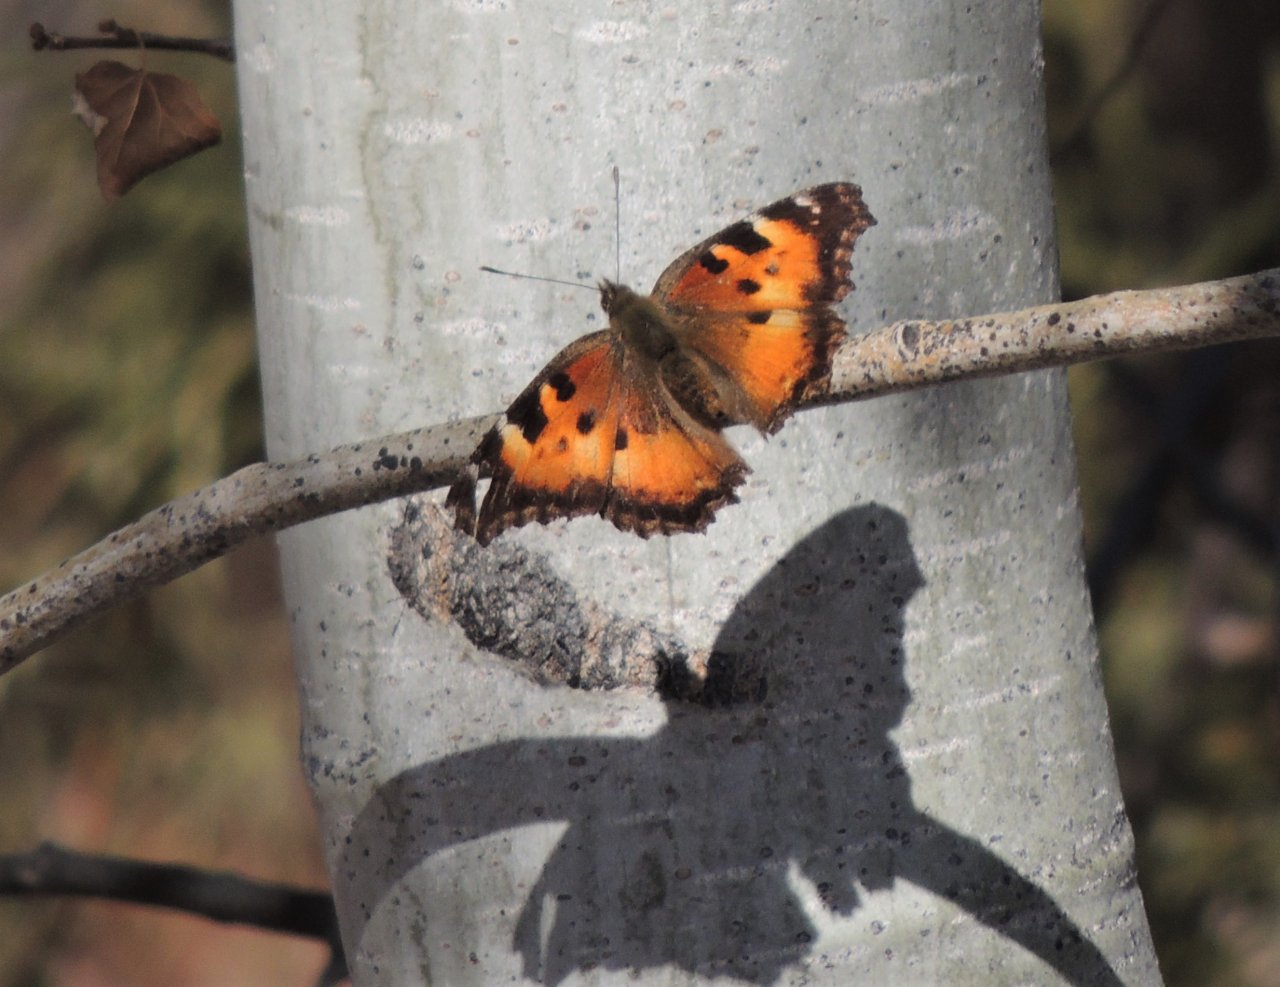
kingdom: Animalia
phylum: Arthropoda
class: Insecta
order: Lepidoptera
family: Nymphalidae
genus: Nymphalis
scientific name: Nymphalis californica
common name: California Tortoiseshell
